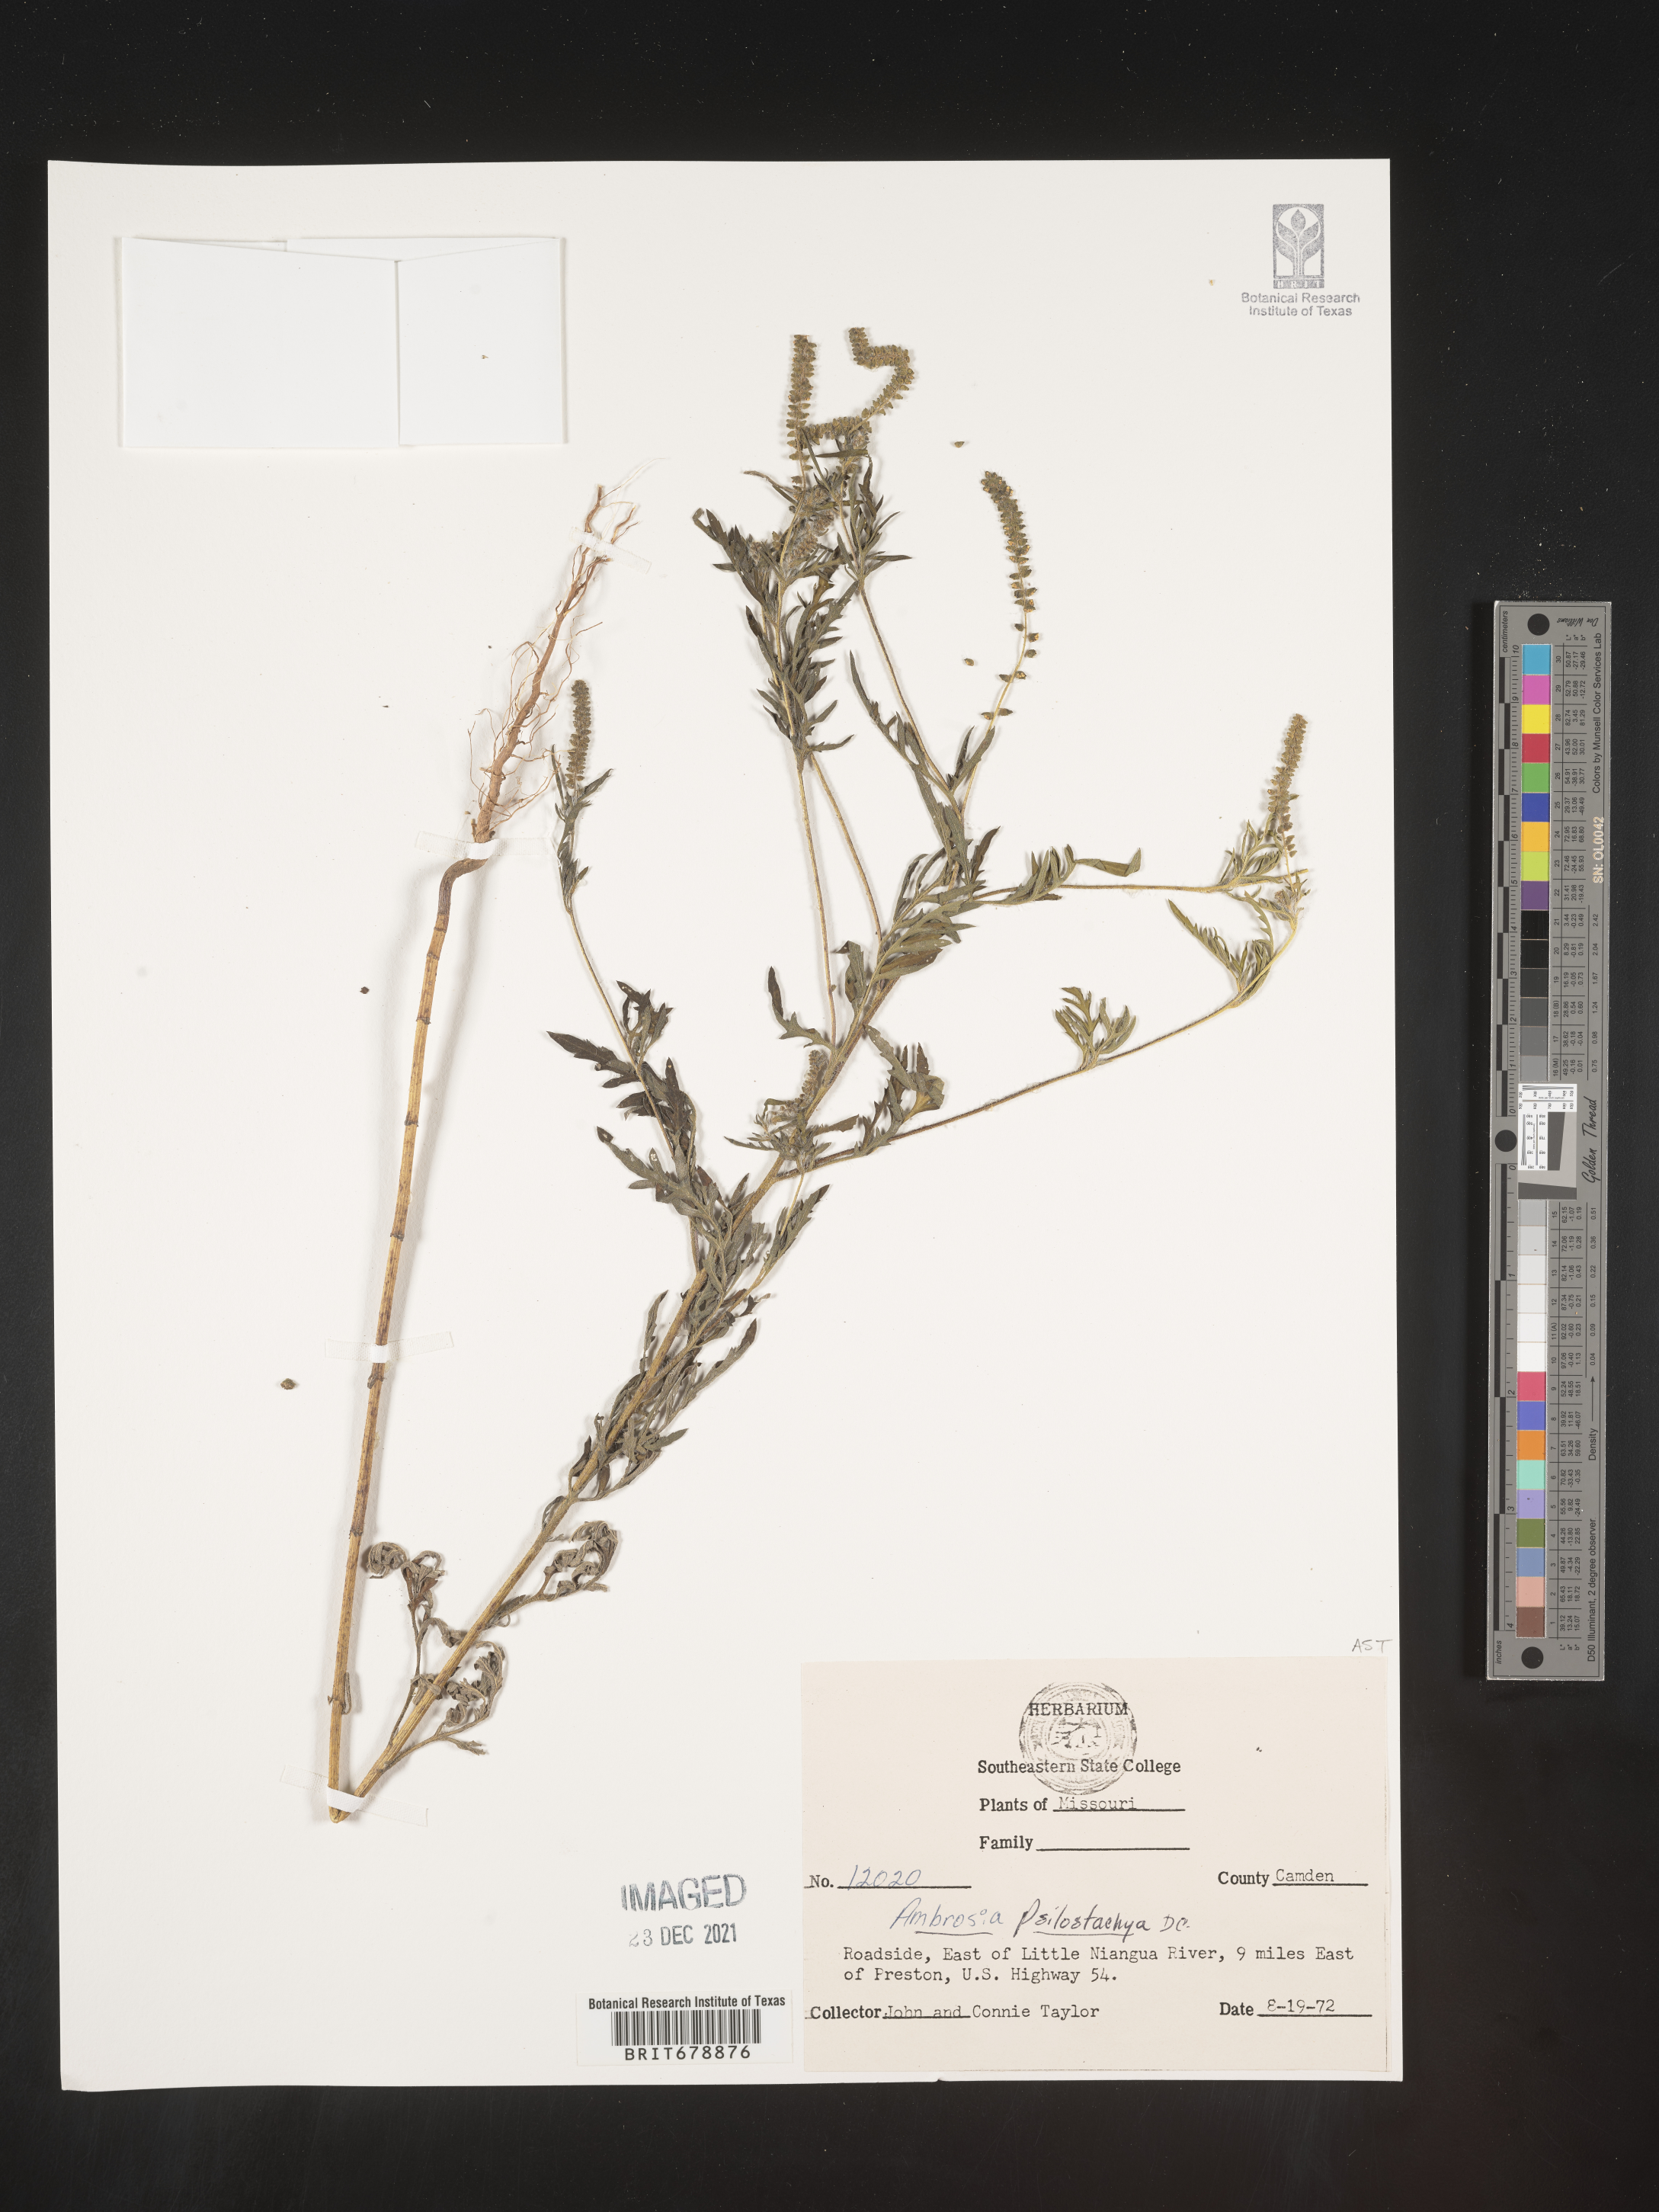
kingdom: Plantae
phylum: Tracheophyta
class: Magnoliopsida
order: Asterales
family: Asteraceae
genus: Ambrosia
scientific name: Ambrosia psilostachya
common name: Perennial ragweed
